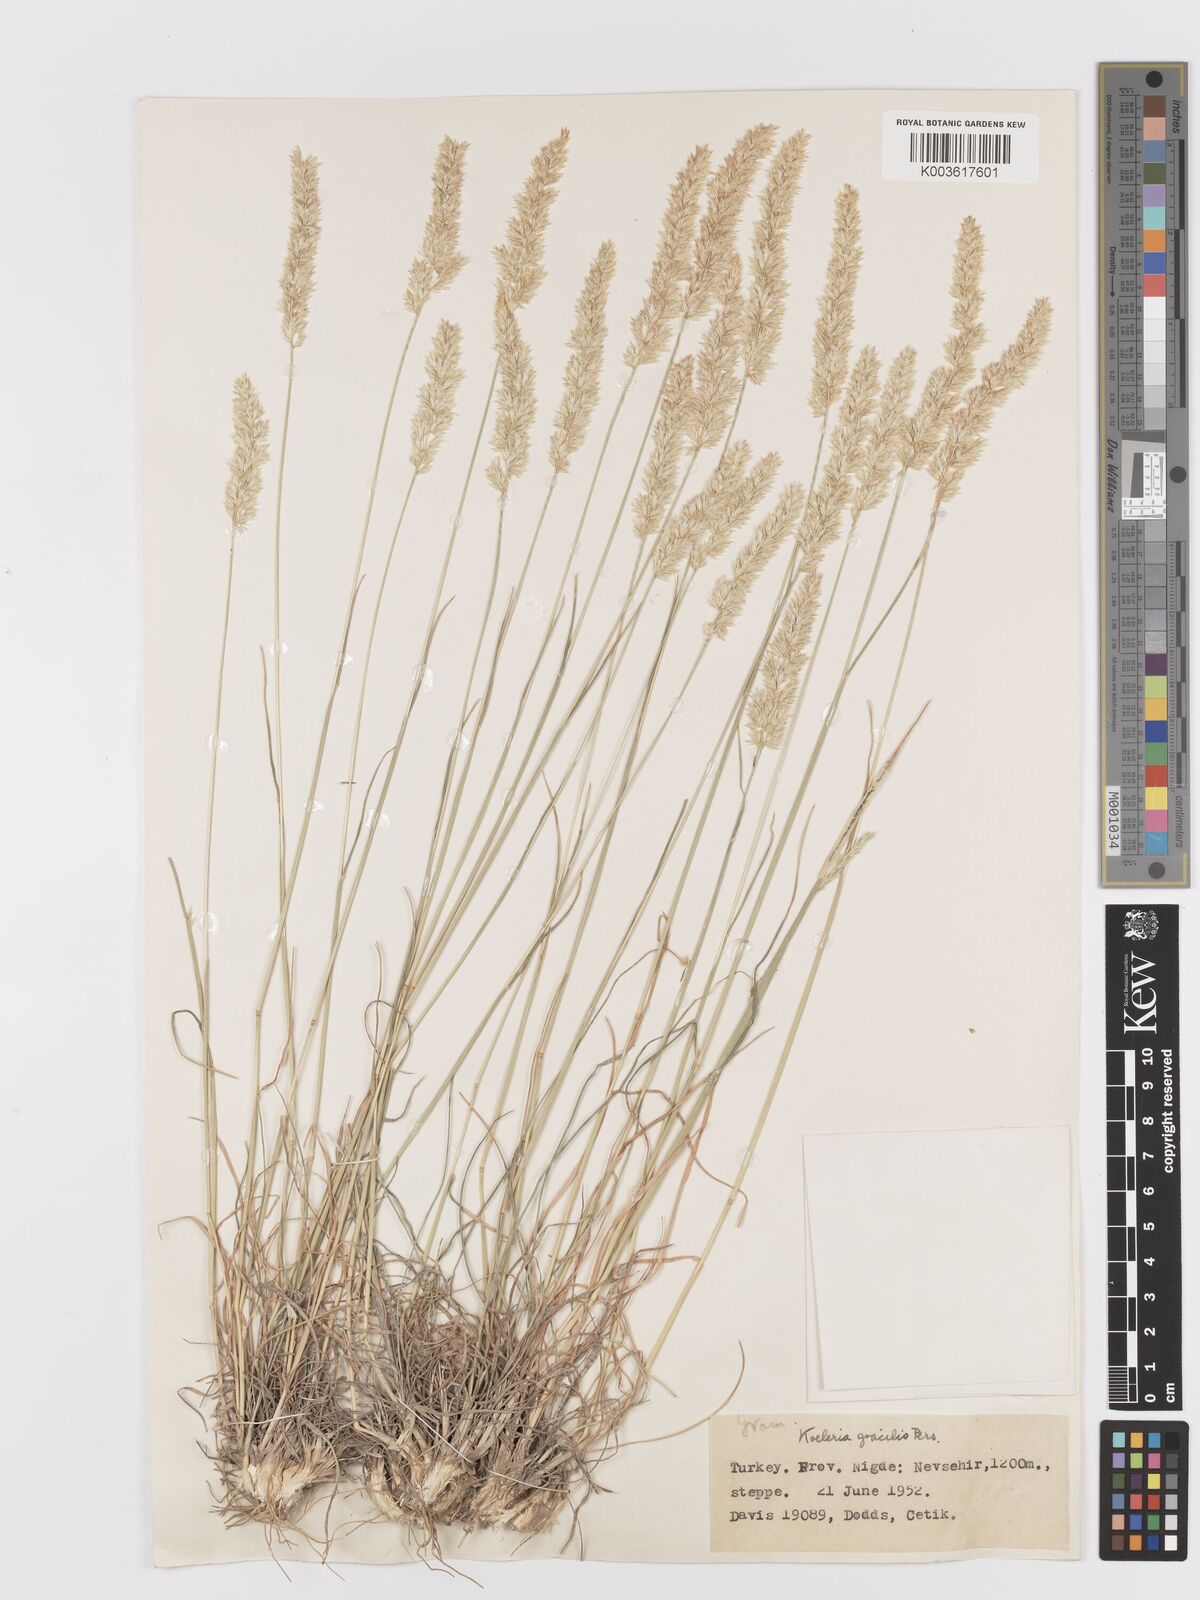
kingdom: Plantae
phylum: Tracheophyta
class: Liliopsida
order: Poales
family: Poaceae
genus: Koeleria
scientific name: Koeleria macrantha
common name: Crested hair-grass
